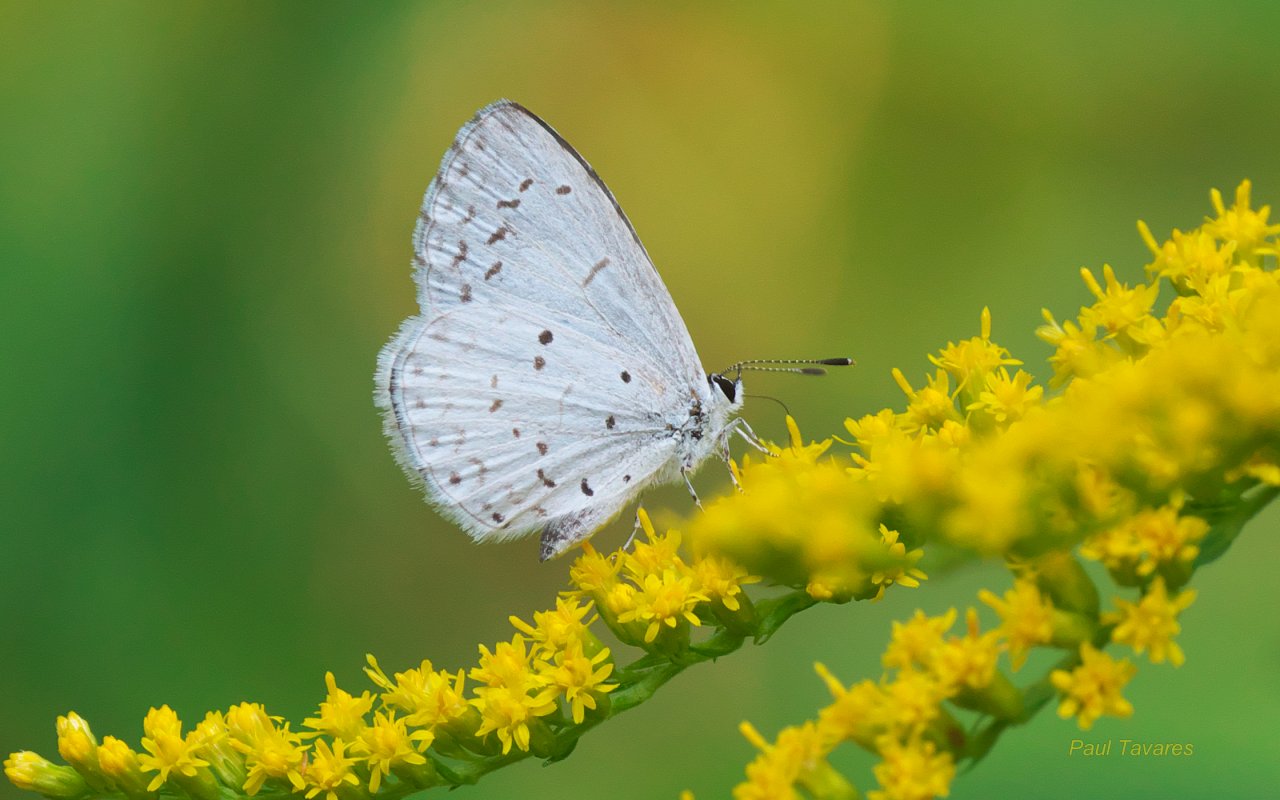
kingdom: Animalia
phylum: Arthropoda
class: Insecta
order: Lepidoptera
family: Lycaenidae
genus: Cyaniris
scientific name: Cyaniris neglecta
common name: Summer Azure
